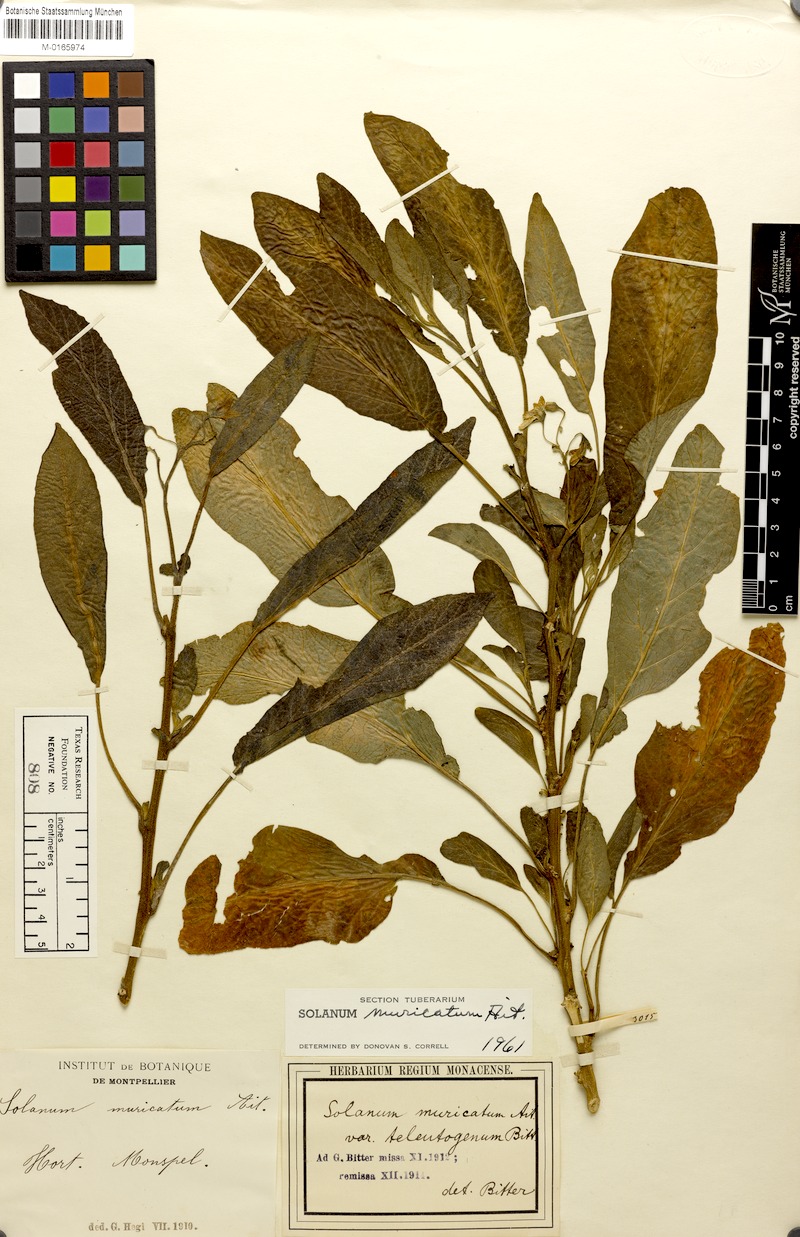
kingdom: Plantae
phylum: Tracheophyta
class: Magnoliopsida
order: Solanales
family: Solanaceae
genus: Solanum
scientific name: Solanum muricatum
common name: Peruvian pepino
